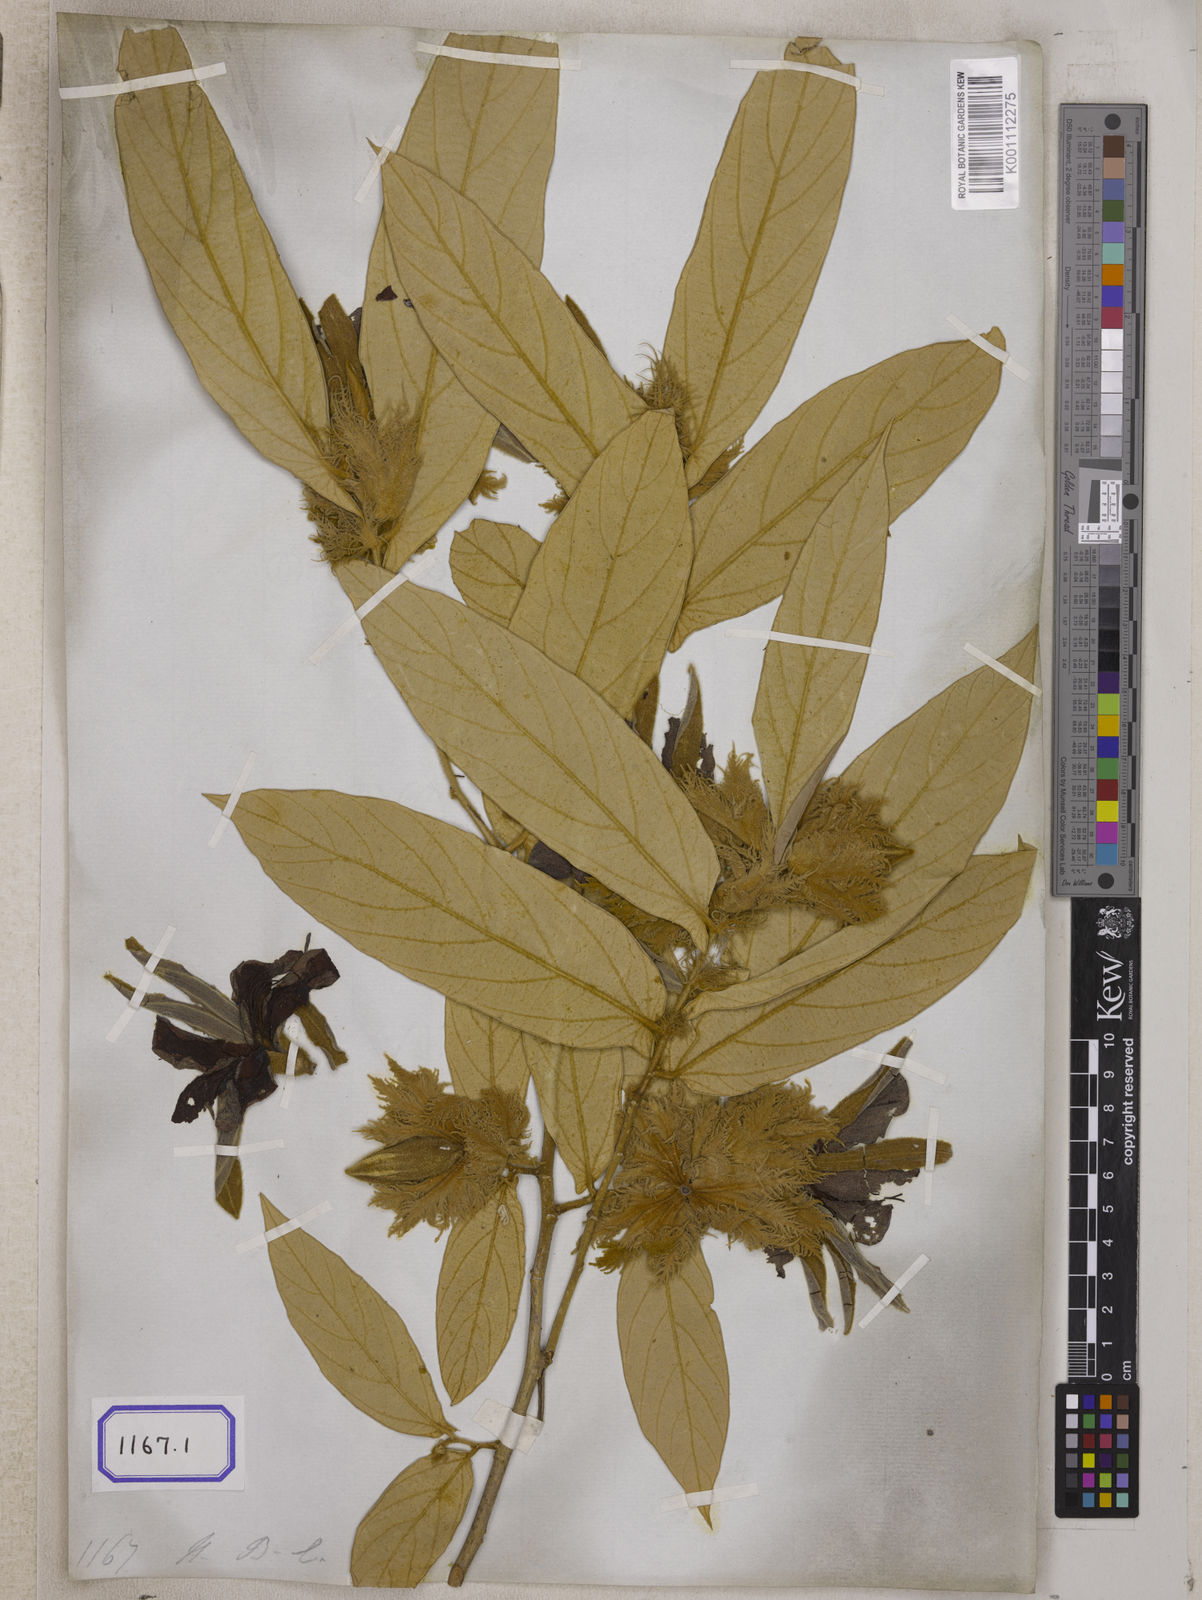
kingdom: Plantae
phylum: Tracheophyta
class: Magnoliopsida
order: Malvales
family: Malvaceae
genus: Pterospermum
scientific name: Pterospermum semisagittatum
